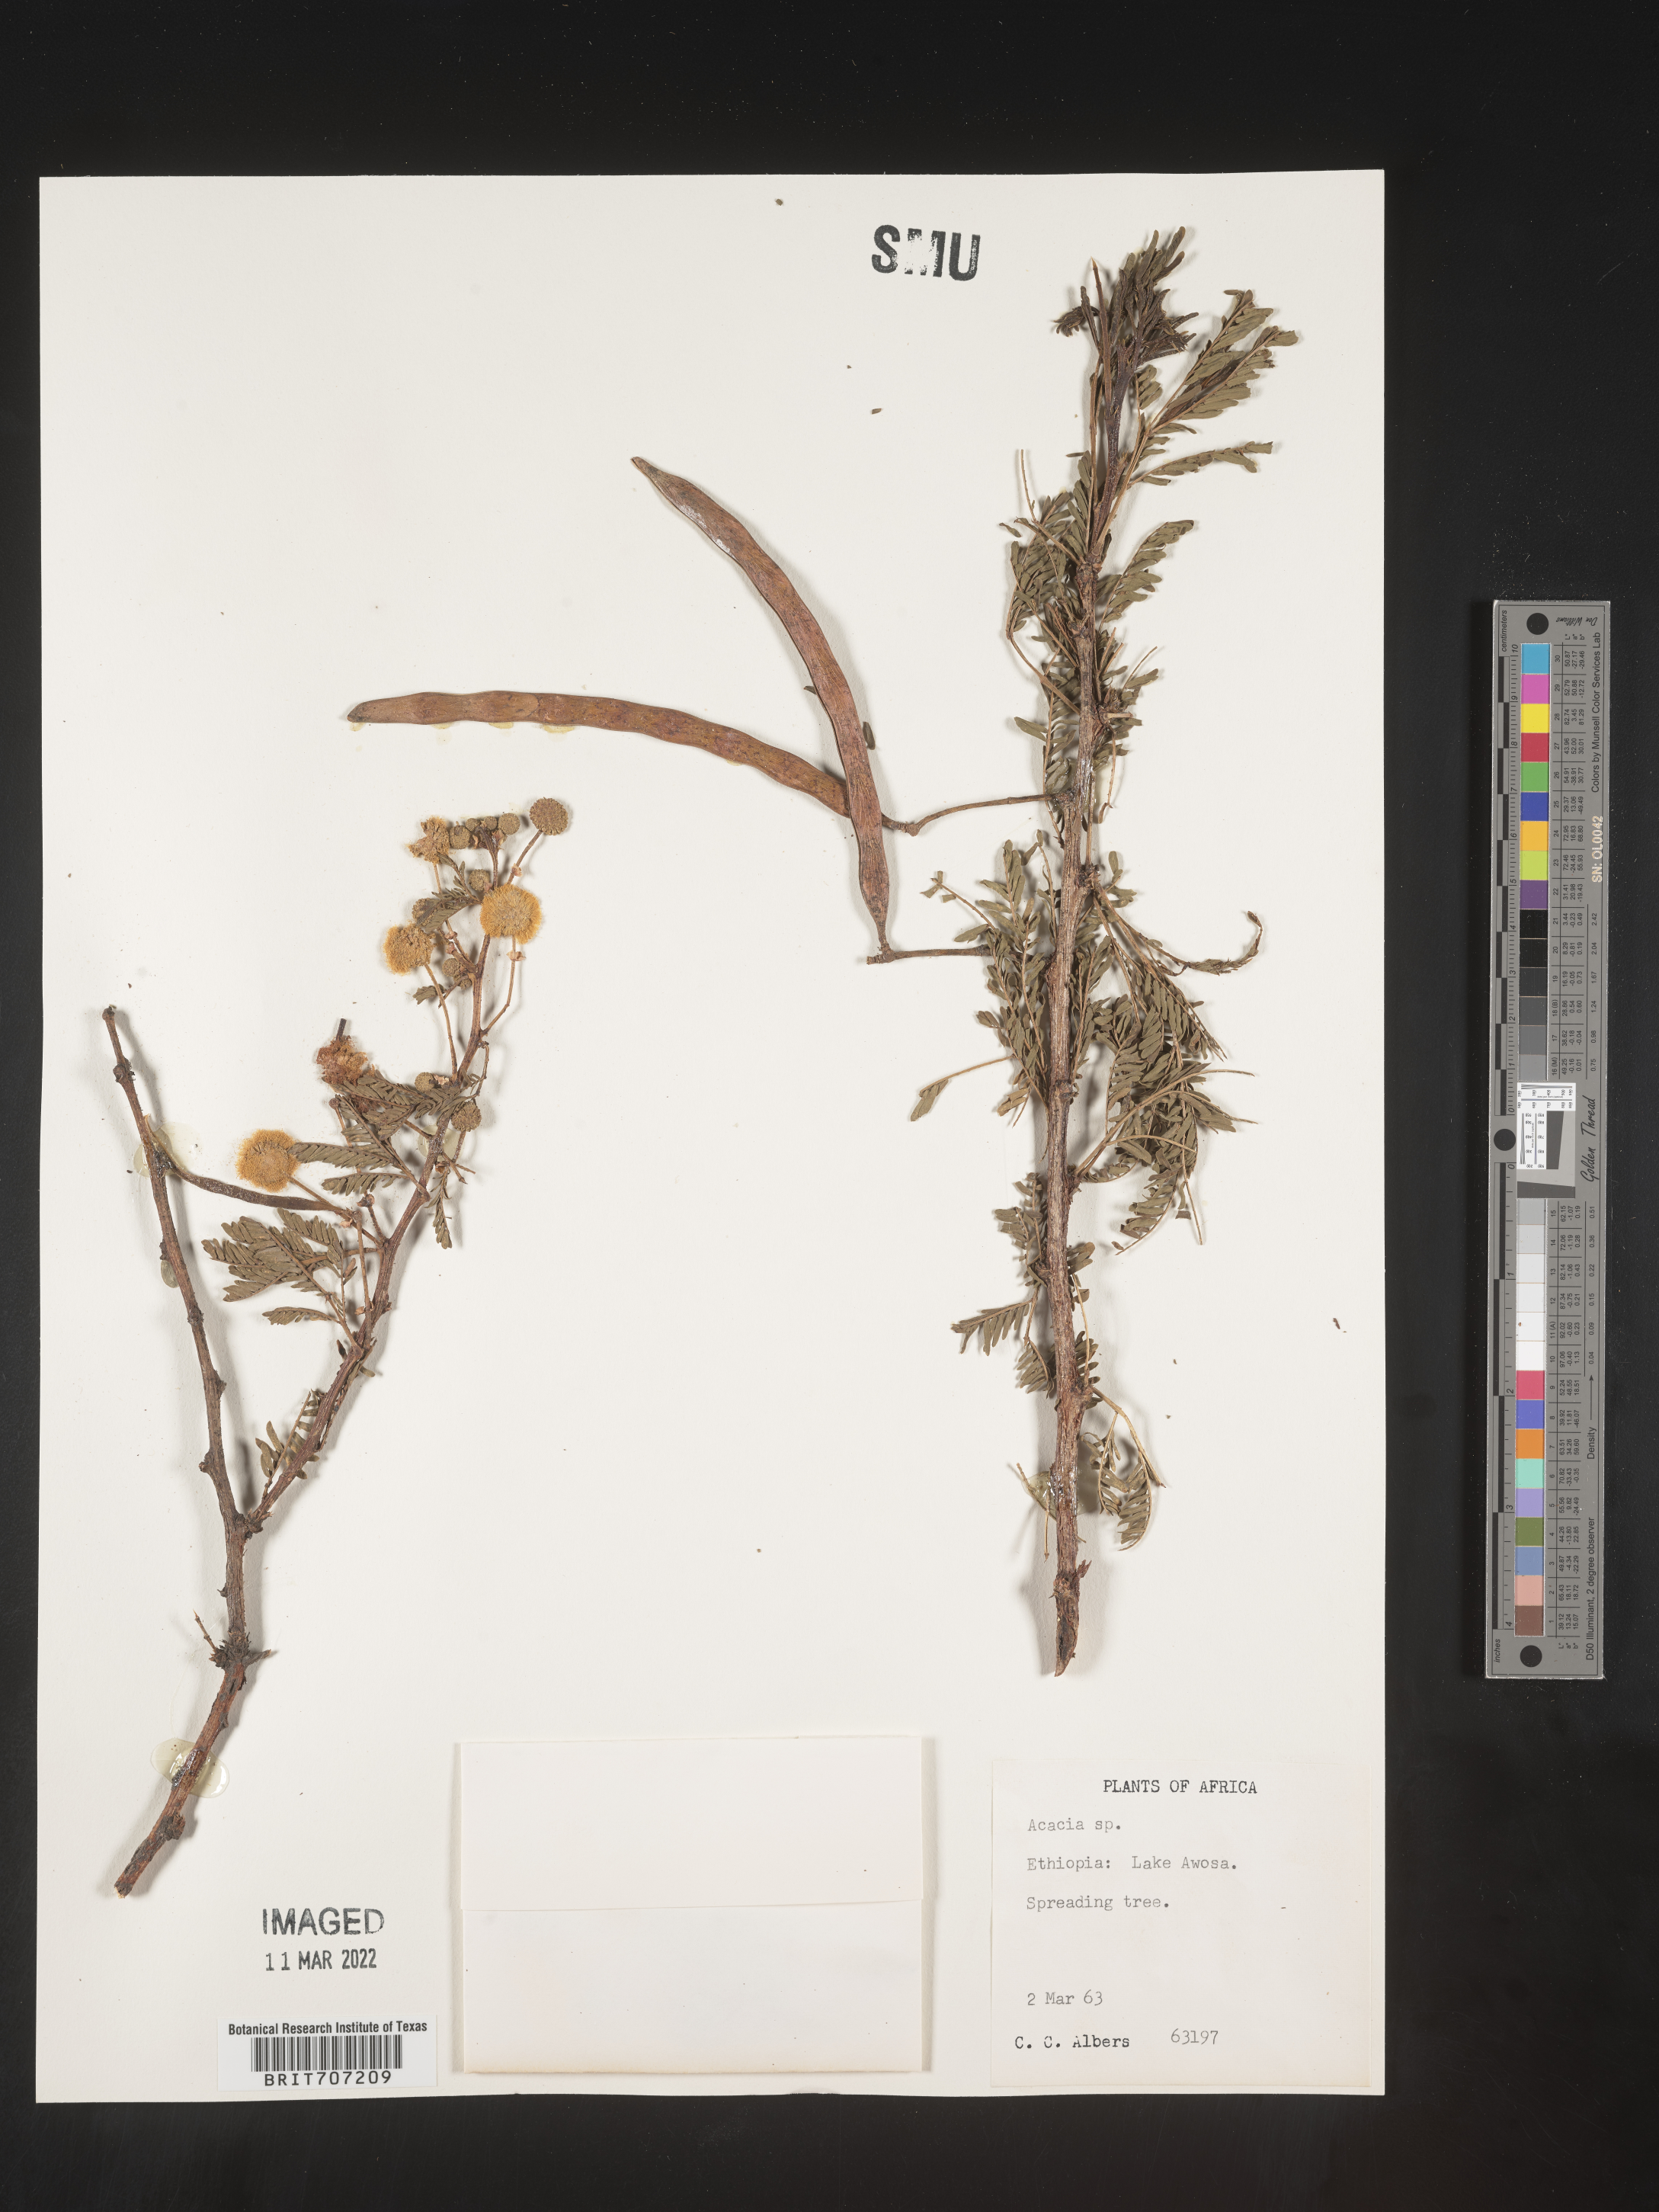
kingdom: Plantae
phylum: Tracheophyta
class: Magnoliopsida
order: Fabales
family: Fabaceae
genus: Acacia
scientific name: Acacia
